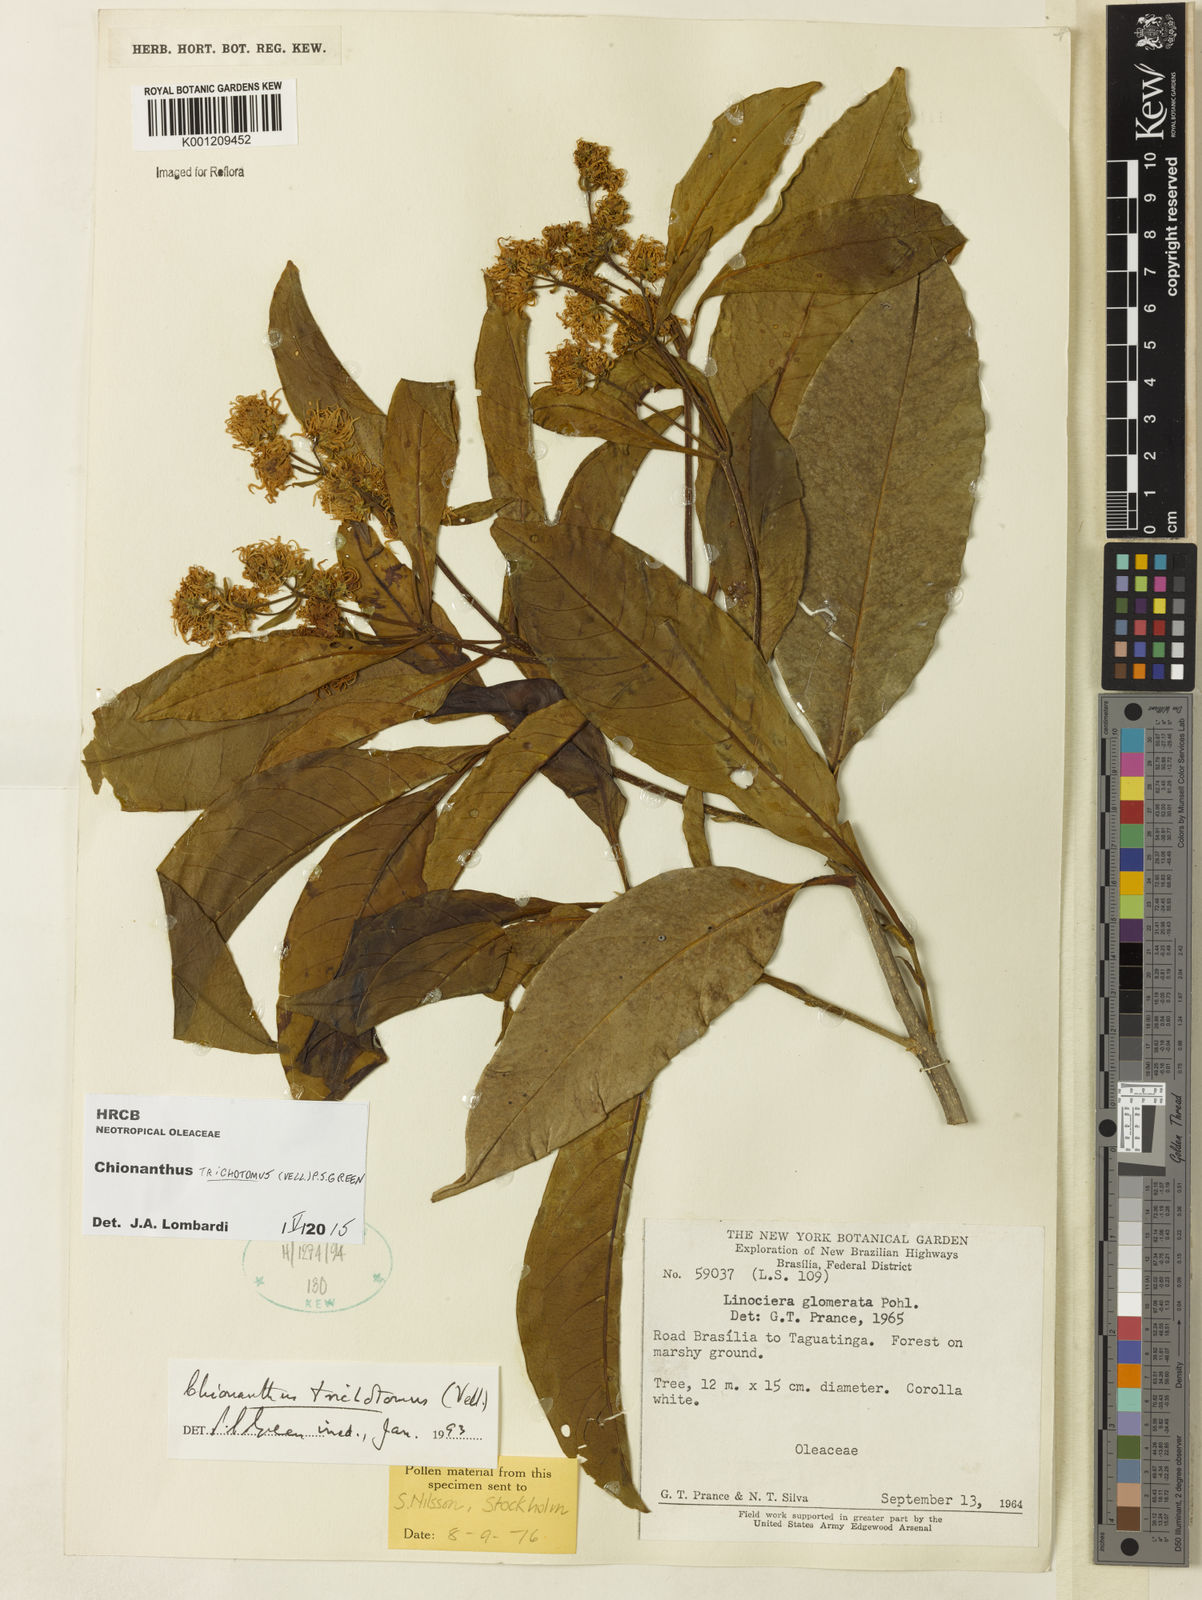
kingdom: Plantae
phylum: Tracheophyta
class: Magnoliopsida
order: Lamiales
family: Oleaceae
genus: Chionanthus
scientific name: Chionanthus trichotomus
